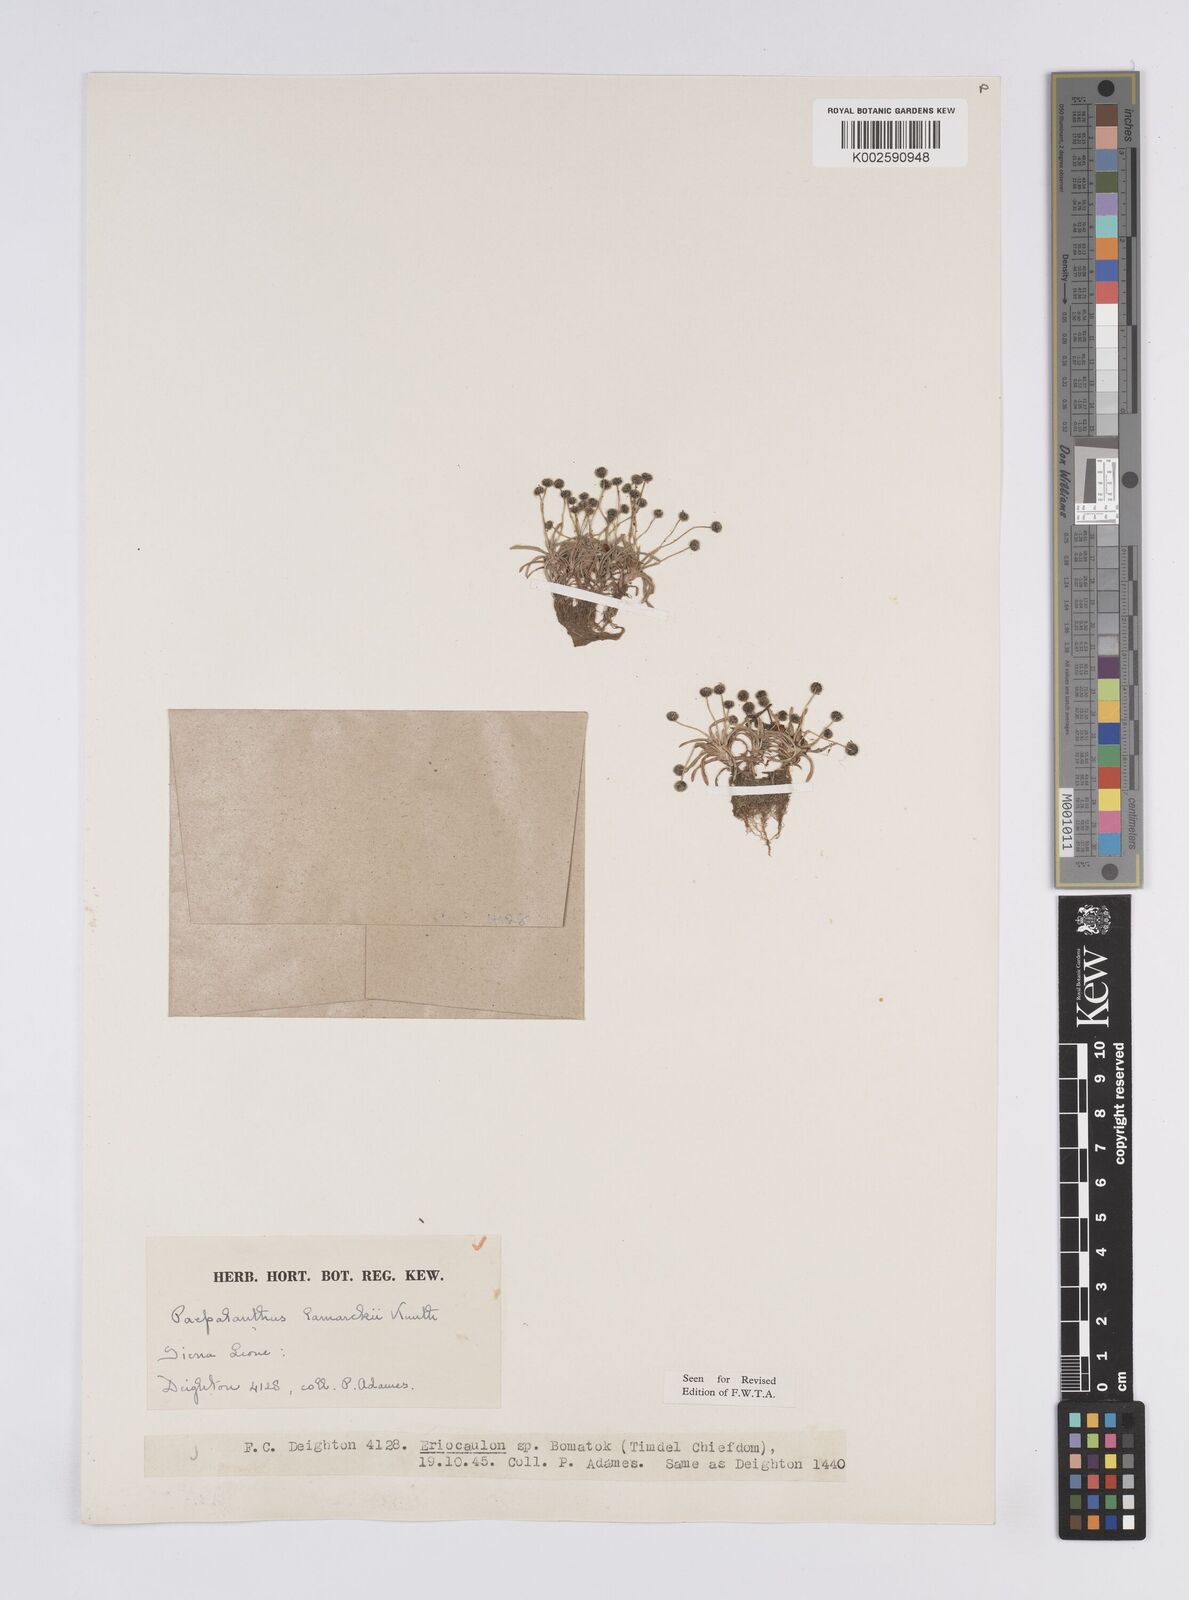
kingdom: Plantae
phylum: Tracheophyta
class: Liliopsida
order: Poales
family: Eriocaulaceae
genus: Paepalanthus
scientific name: Paepalanthus lamarckii
